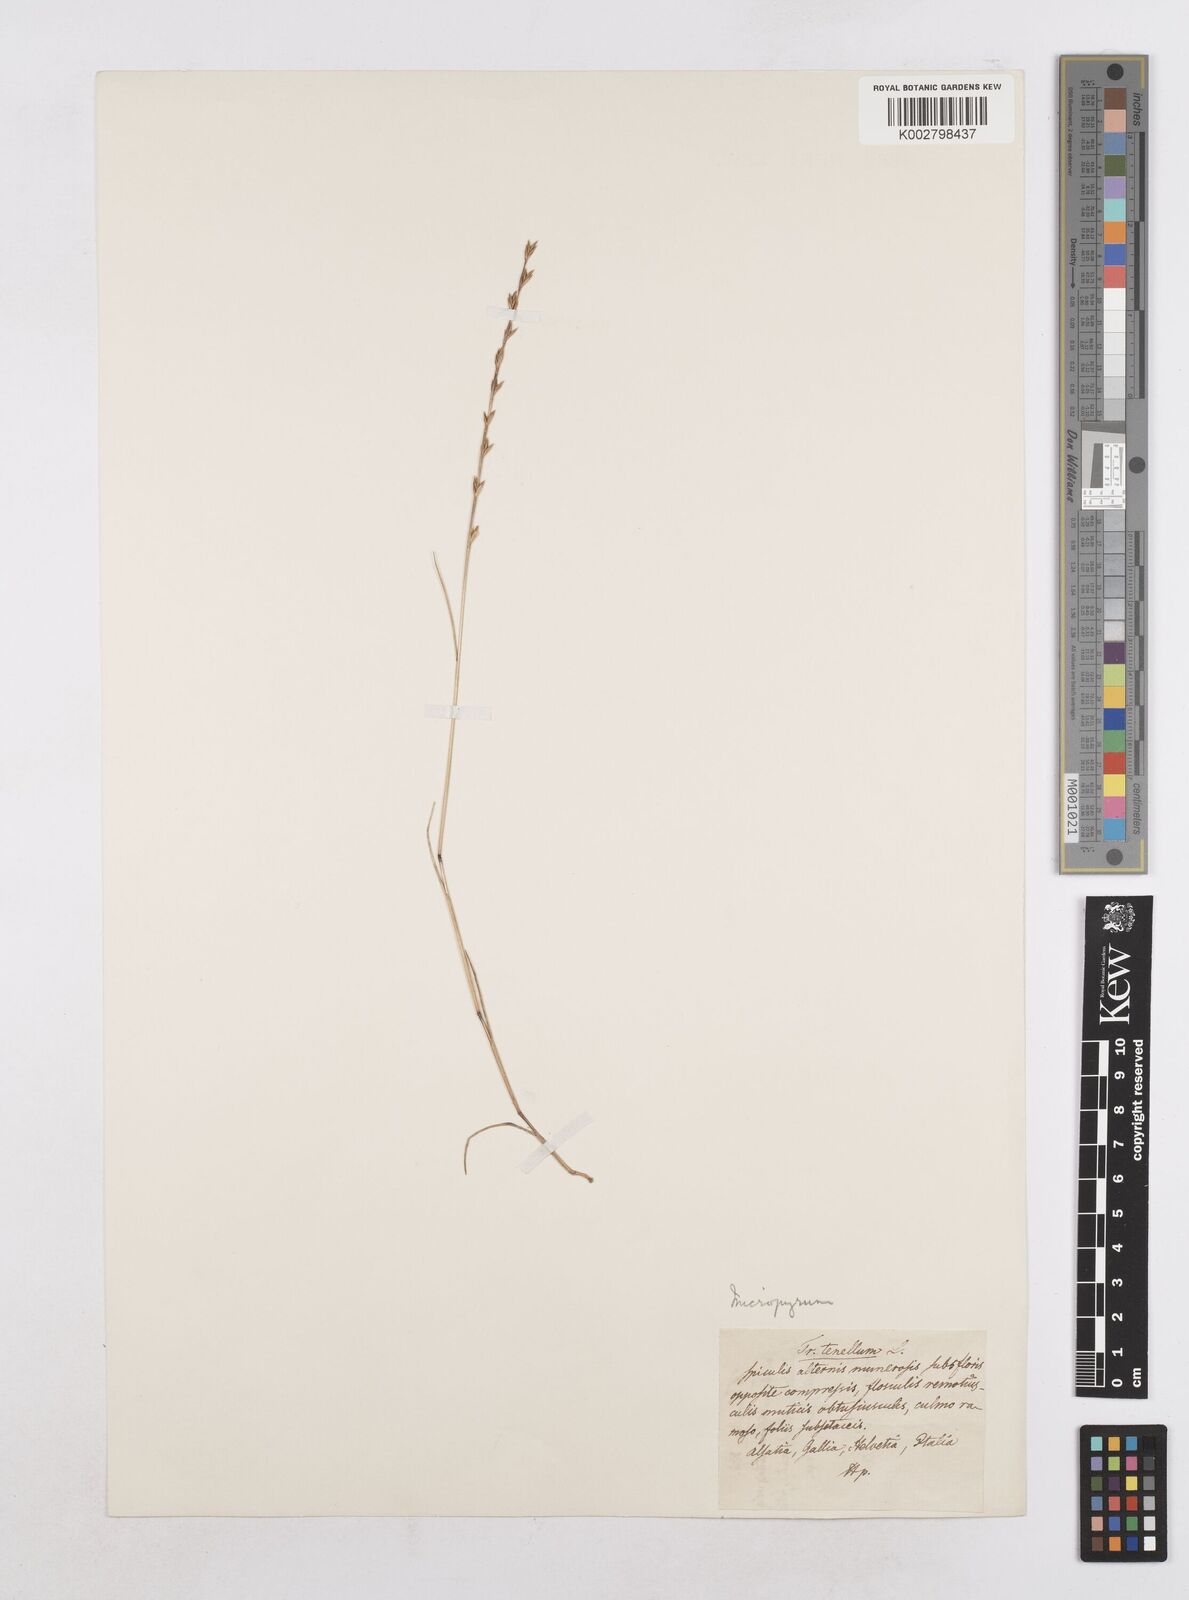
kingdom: Plantae
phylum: Tracheophyta
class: Liliopsida
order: Poales
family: Poaceae
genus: Festuca
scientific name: Festuca lachenalii
